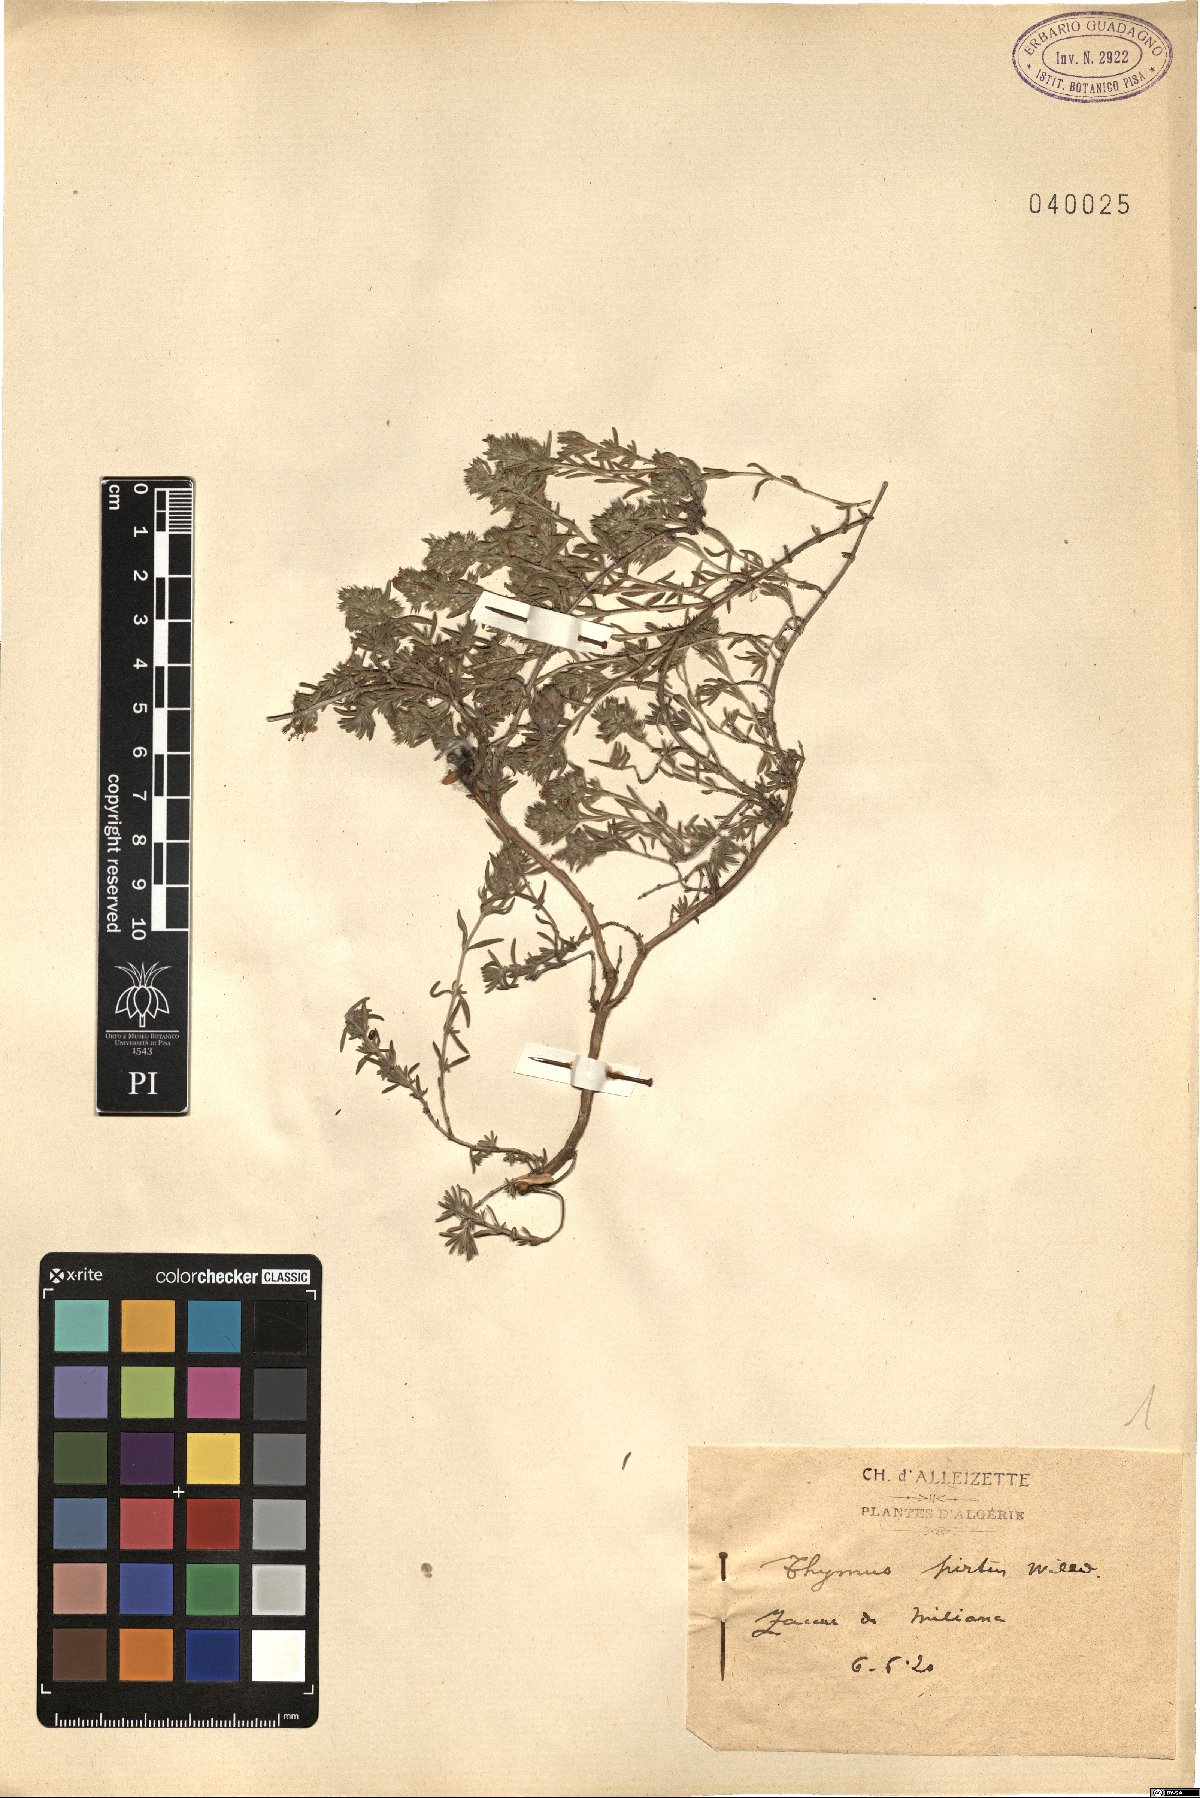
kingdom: Plantae
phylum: Tracheophyta
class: Magnoliopsida
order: Lamiales
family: Lamiaceae
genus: Thymus
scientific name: Thymus willdenowii
